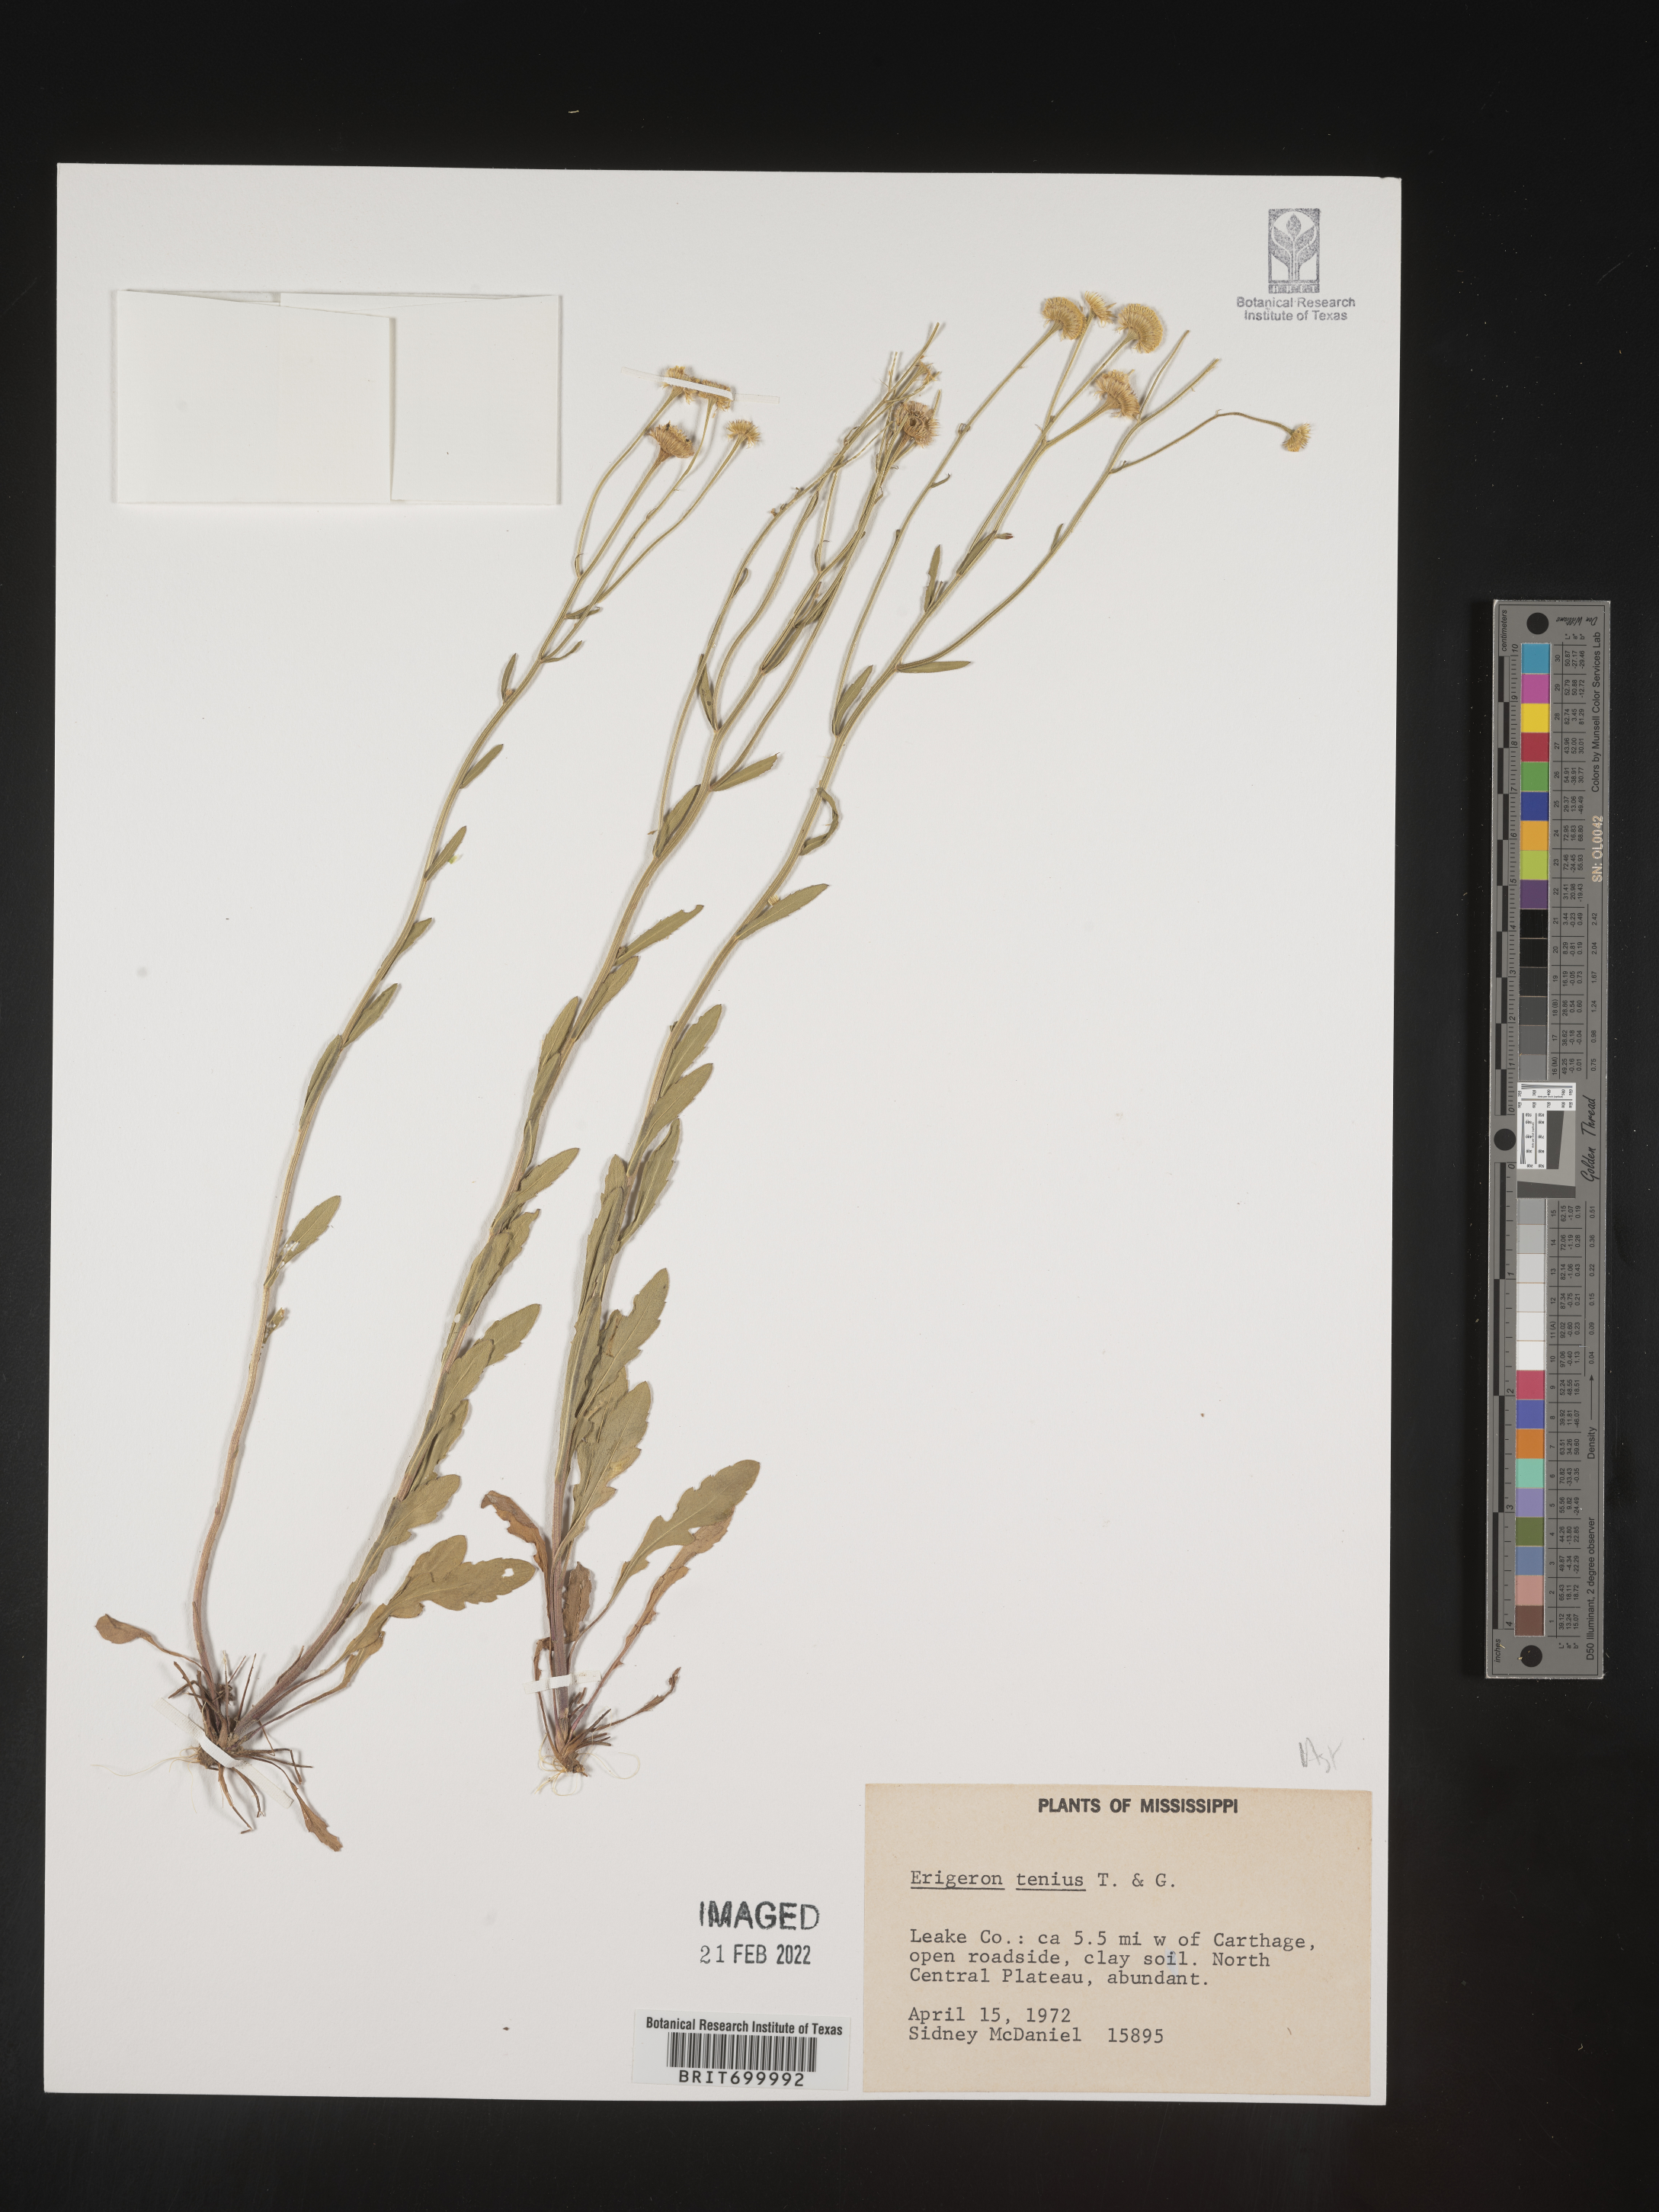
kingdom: Plantae
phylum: Tracheophyta
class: Magnoliopsida
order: Asterales
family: Asteraceae
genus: Erigeron
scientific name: Erigeron tenuis
